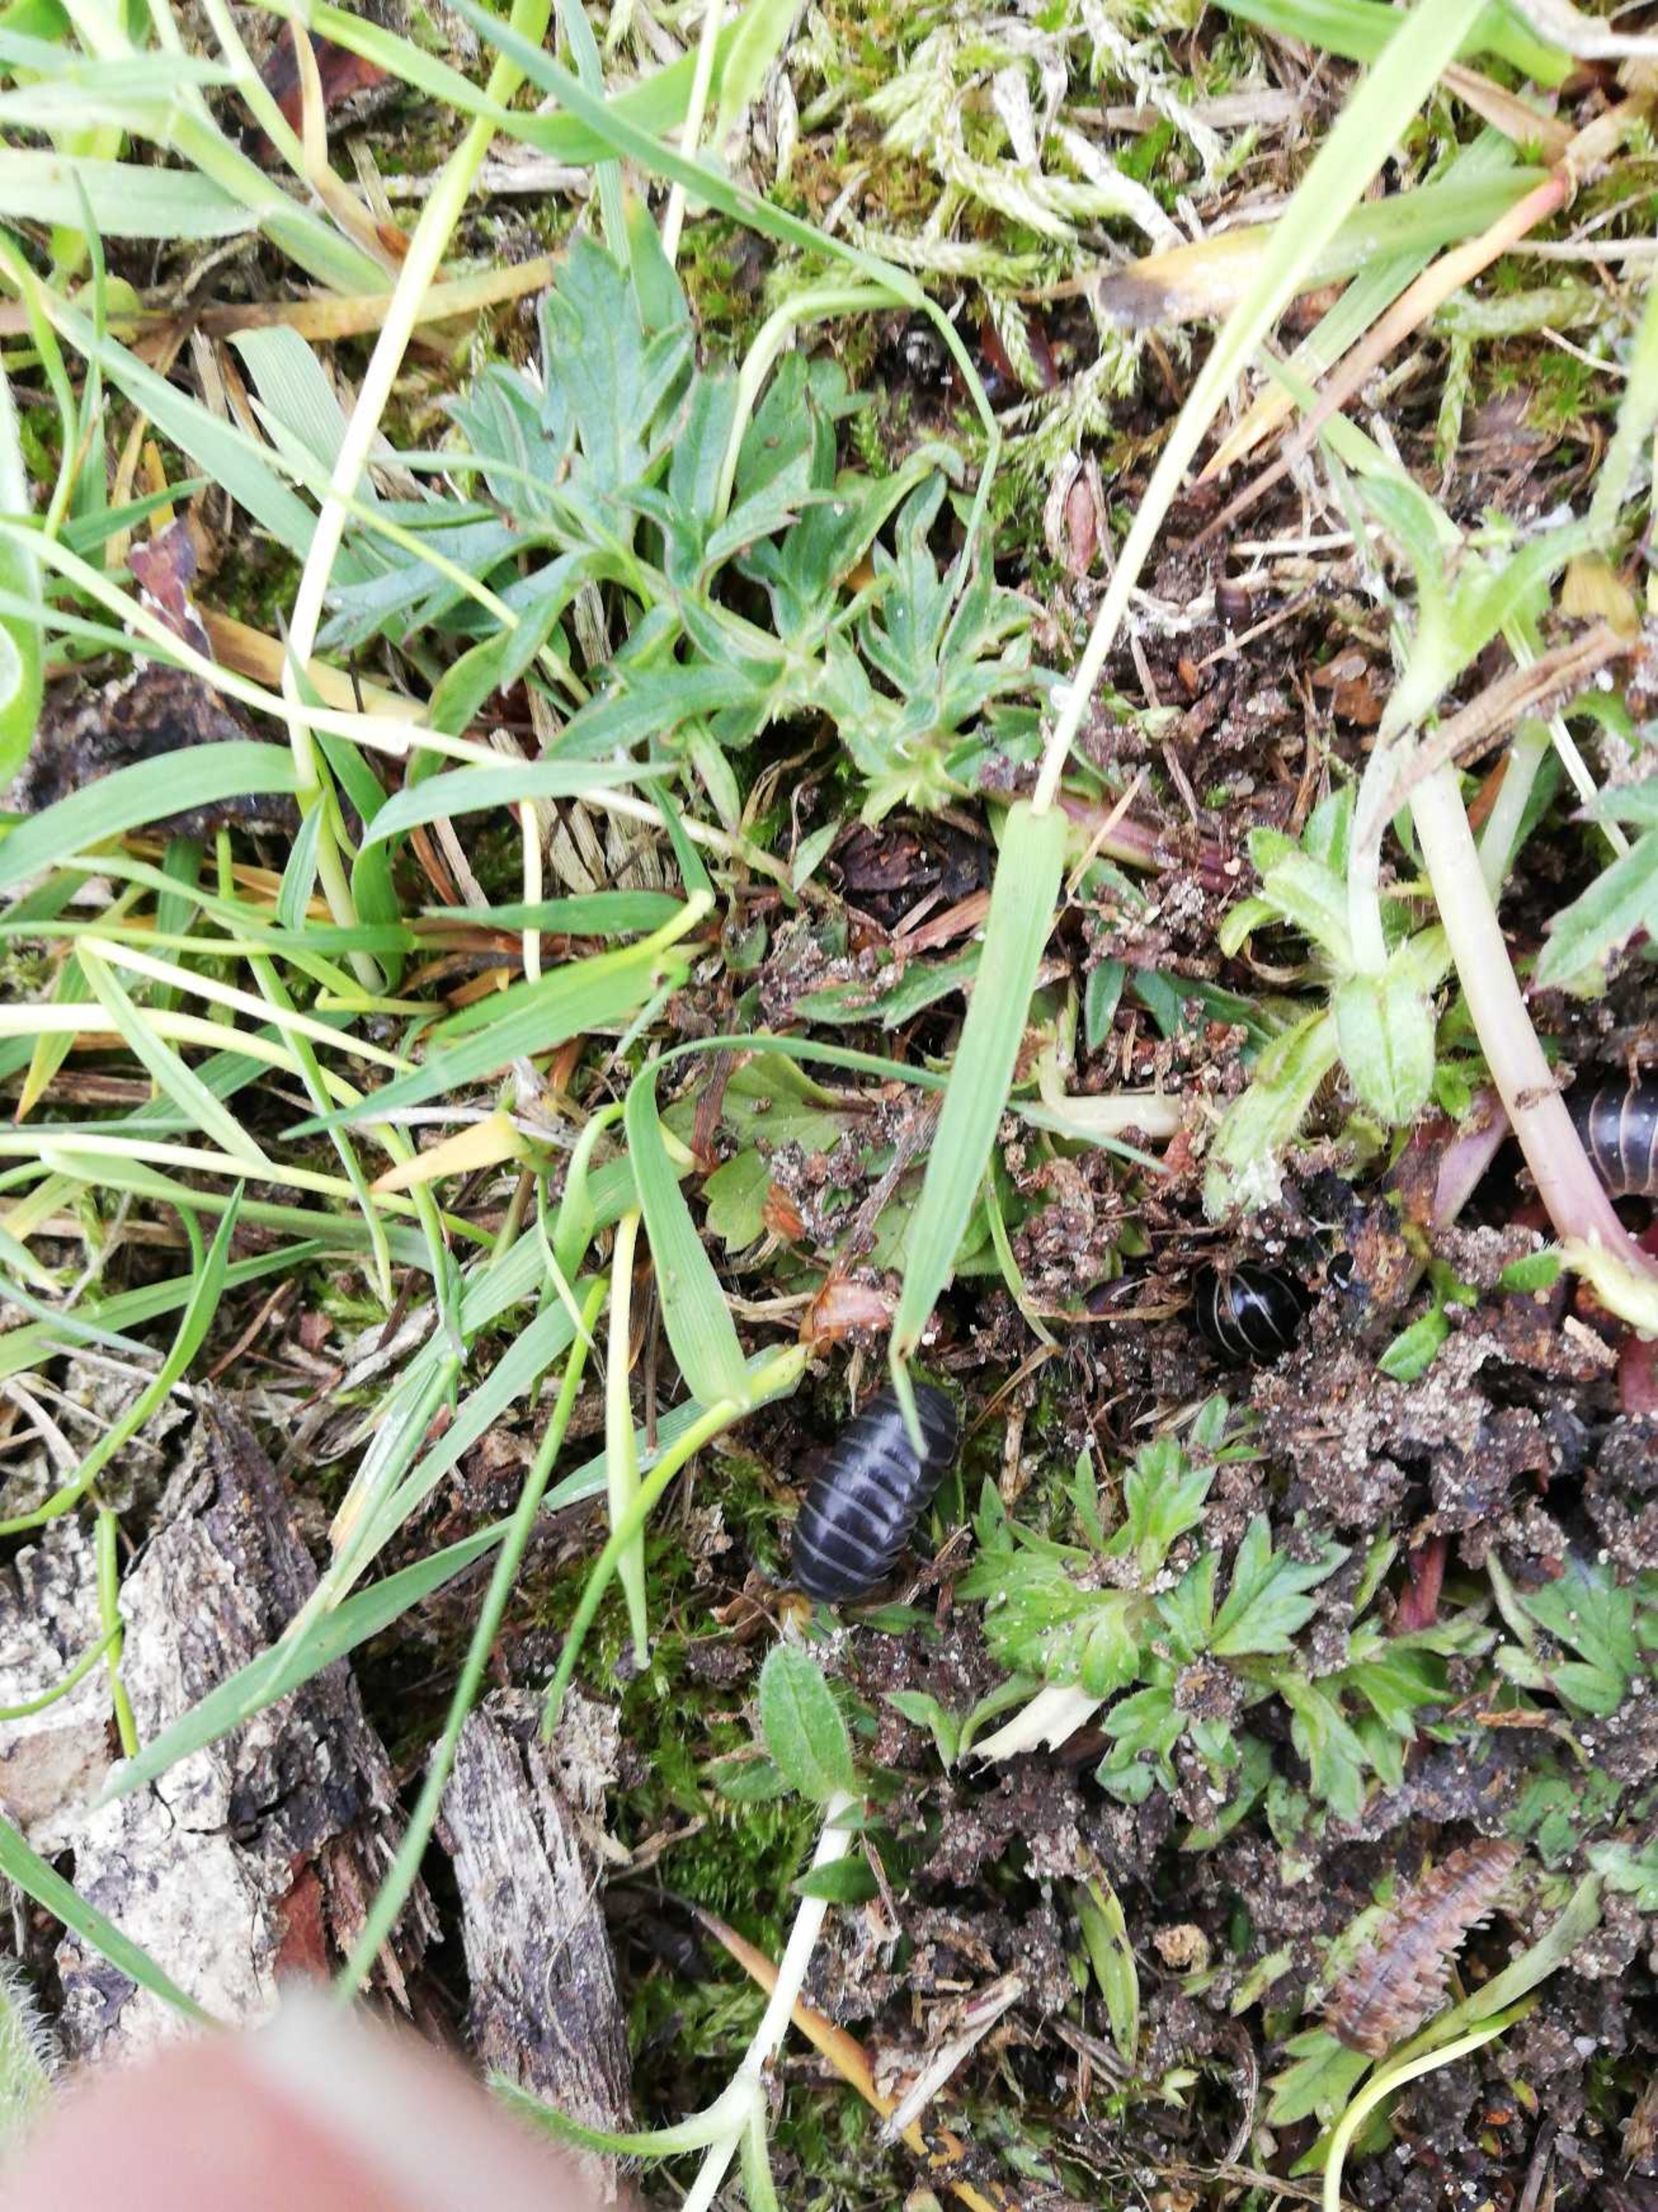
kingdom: Animalia
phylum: Arthropoda
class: Malacostraca
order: Isopoda
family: Armadillidiidae
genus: Armadillidium
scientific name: Armadillidium vulgare
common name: Almindelig kuglebænkebider
